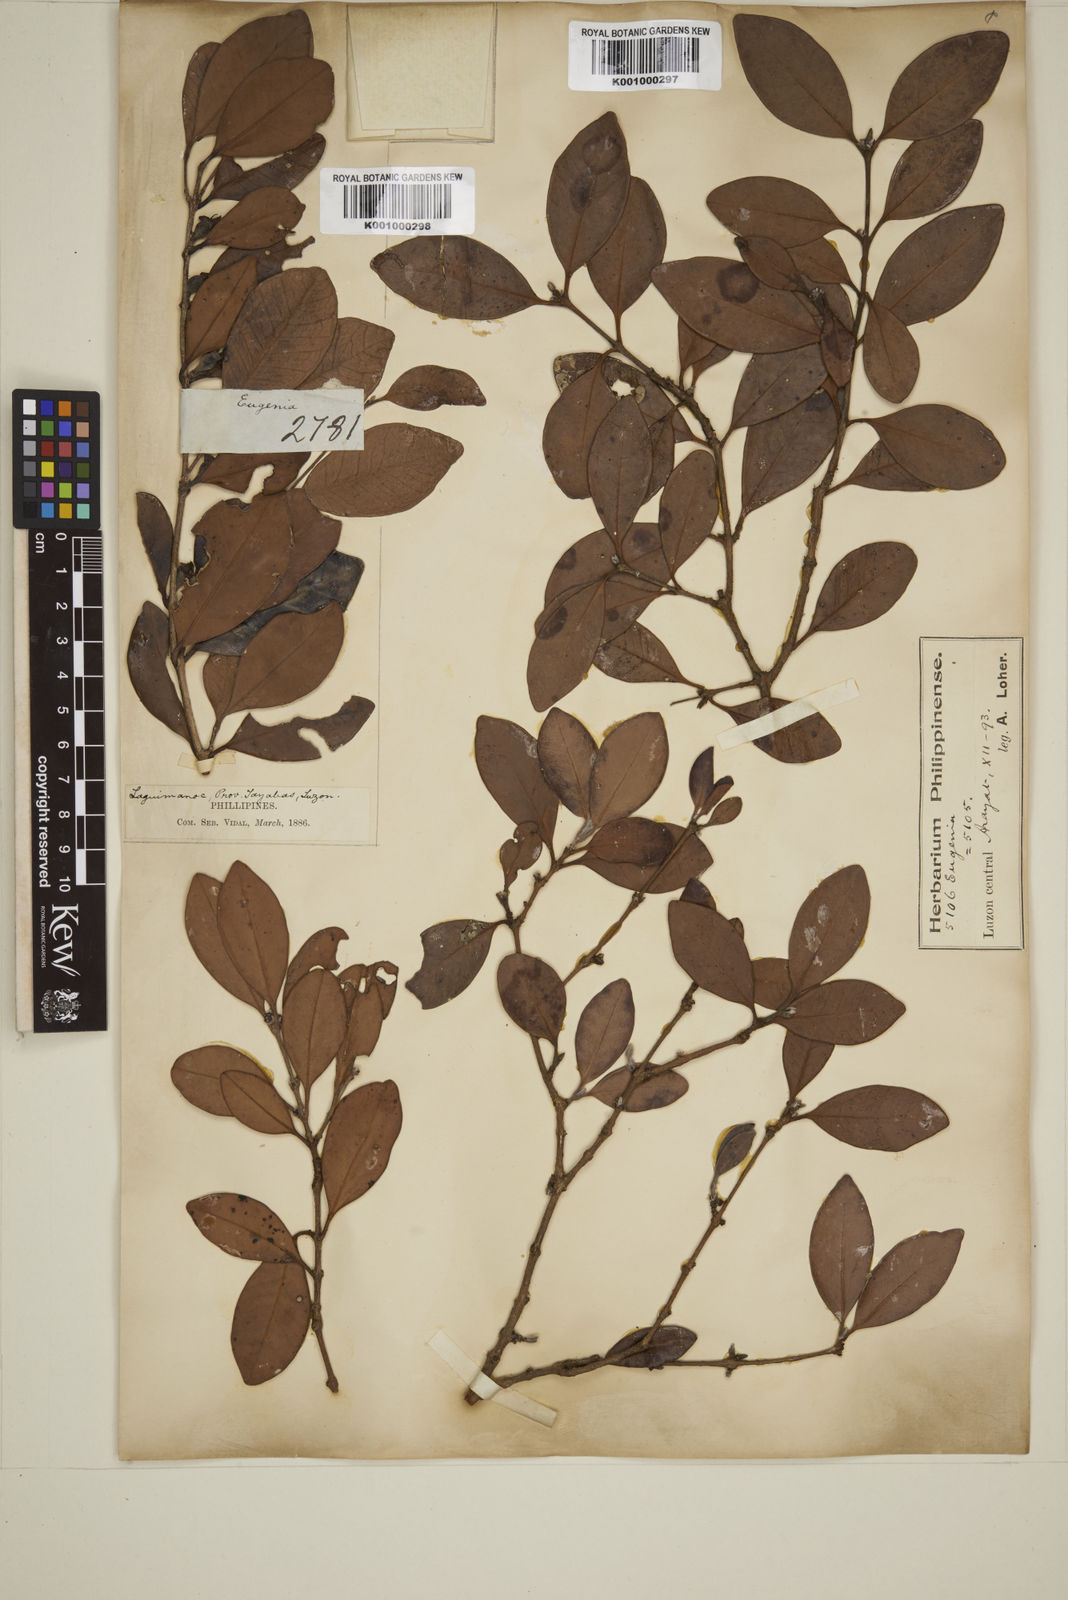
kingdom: Plantae
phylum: Tracheophyta
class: Magnoliopsida
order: Myrtales
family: Myrtaceae
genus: Eugenia
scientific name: Eugenia sargentii
